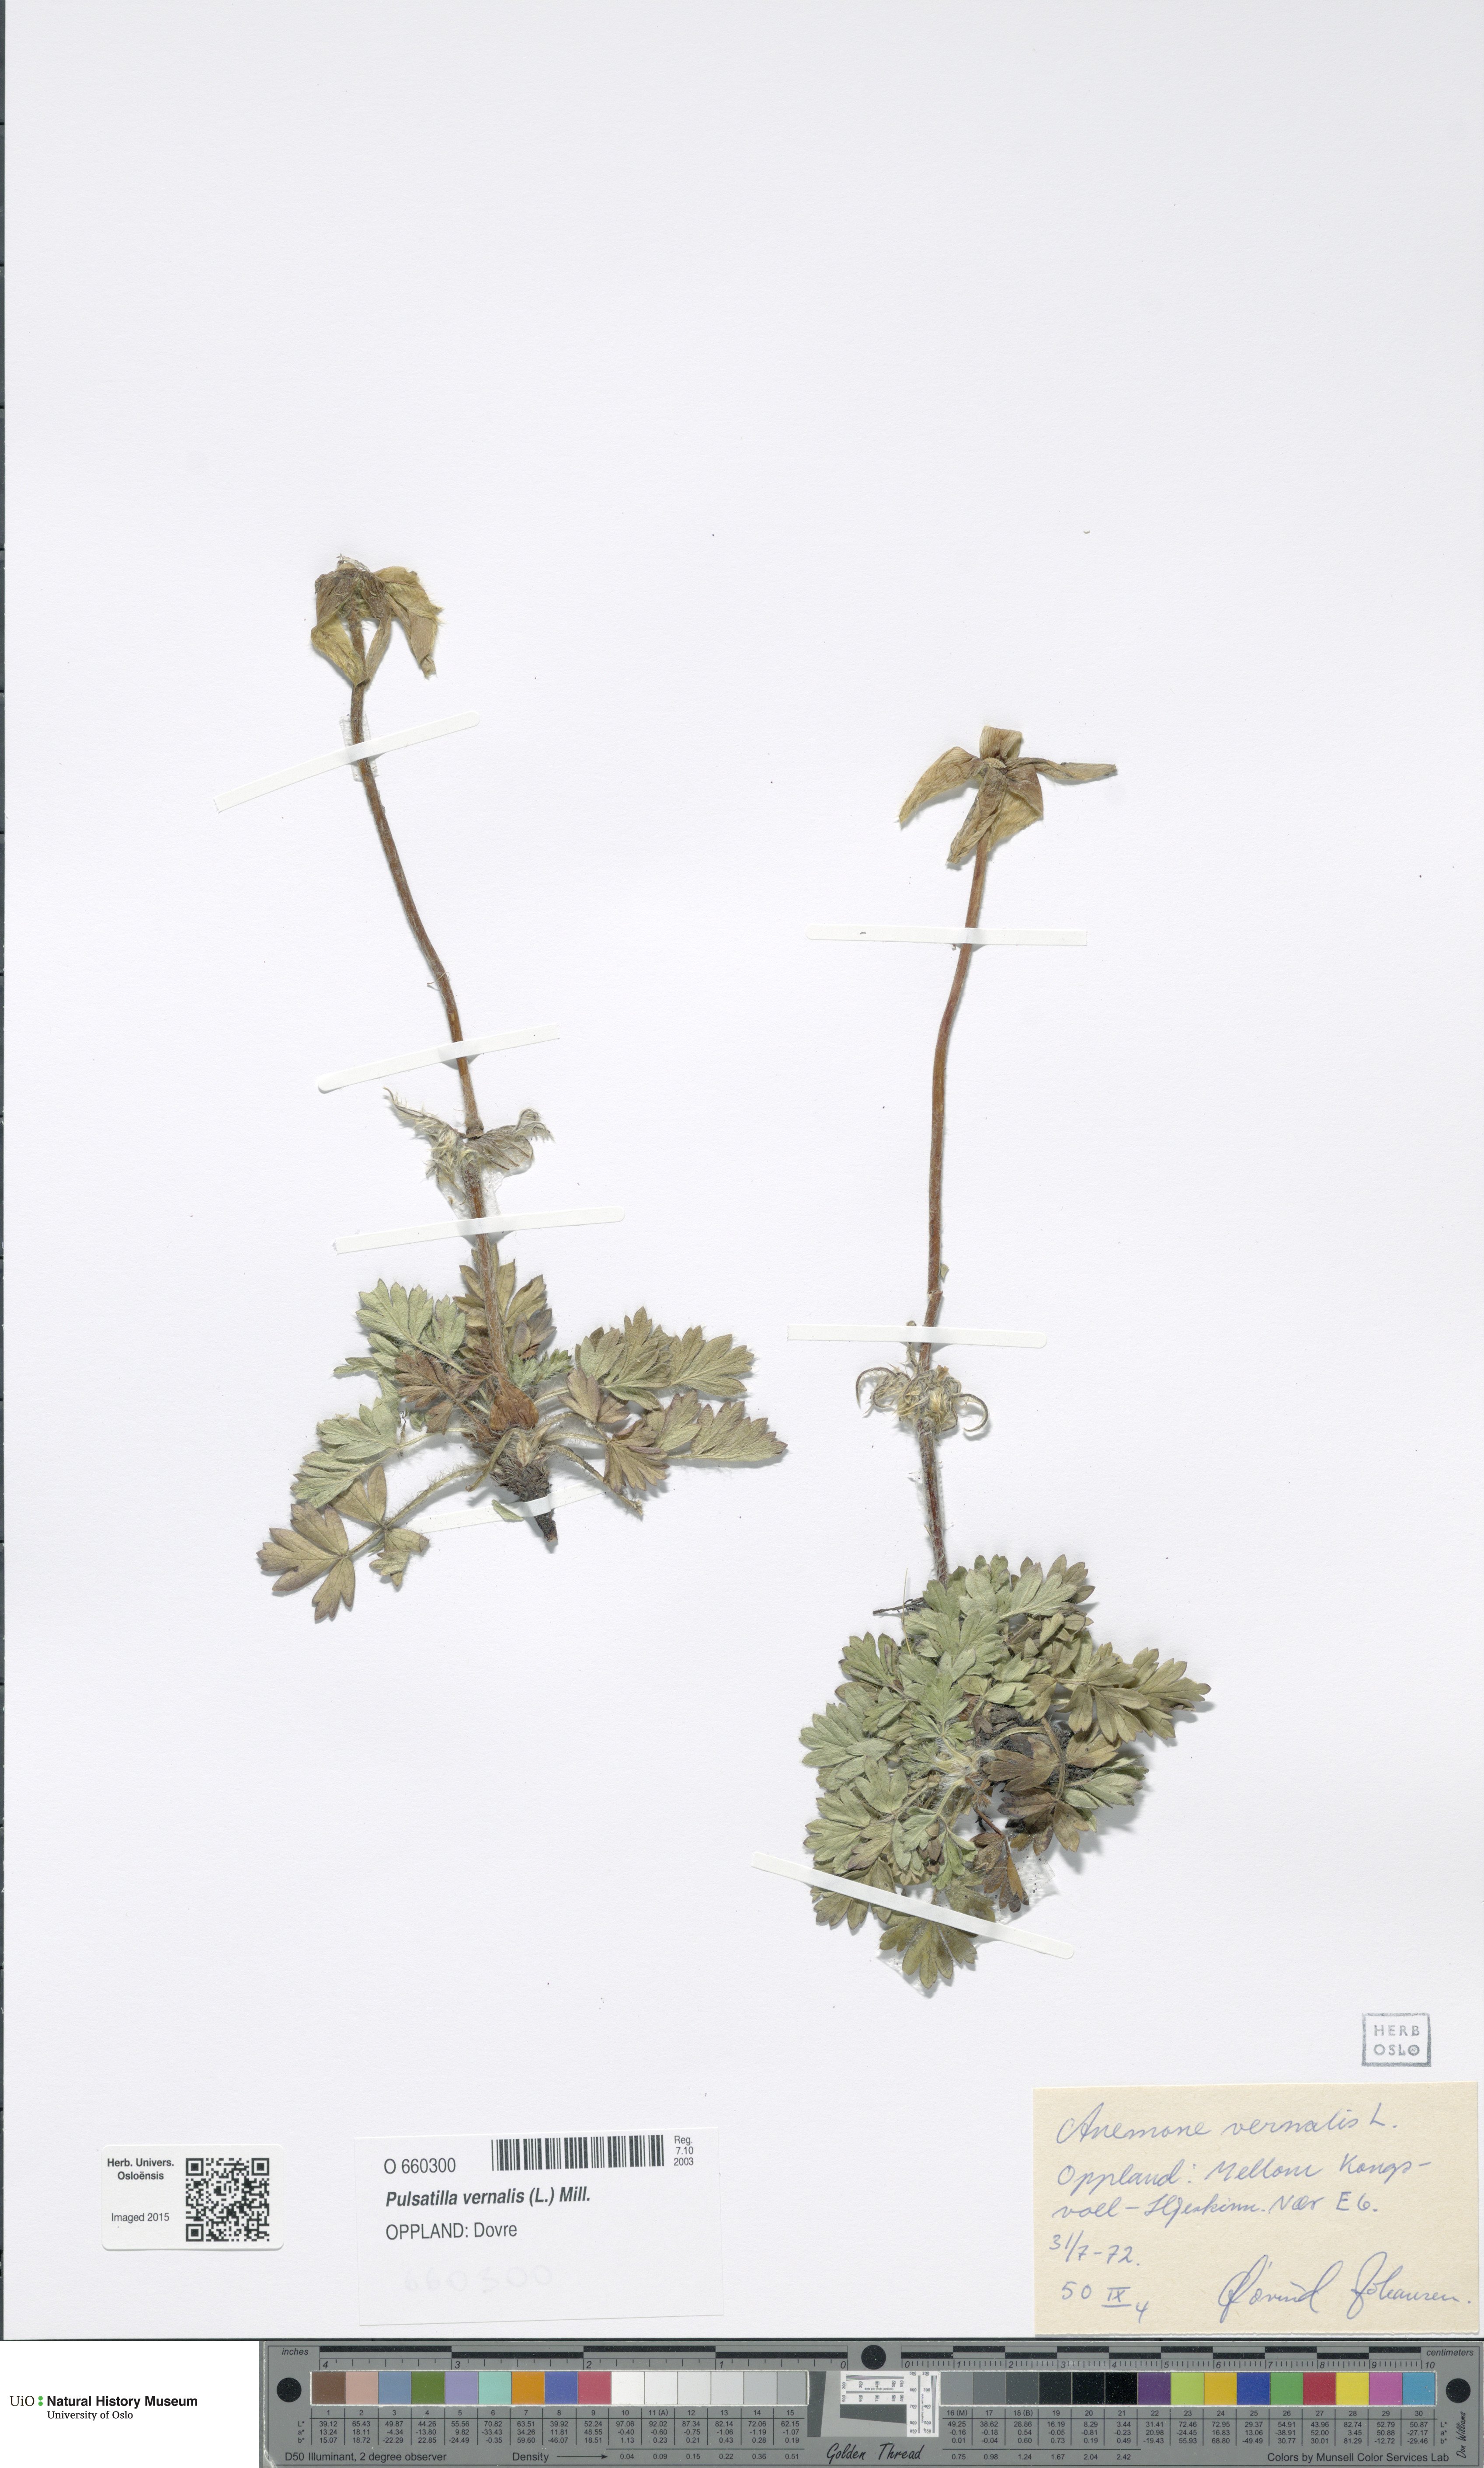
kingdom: Plantae
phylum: Tracheophyta
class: Magnoliopsida
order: Ranunculales
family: Ranunculaceae
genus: Pulsatilla
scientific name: Pulsatilla vernalis
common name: Spring pasque flower
